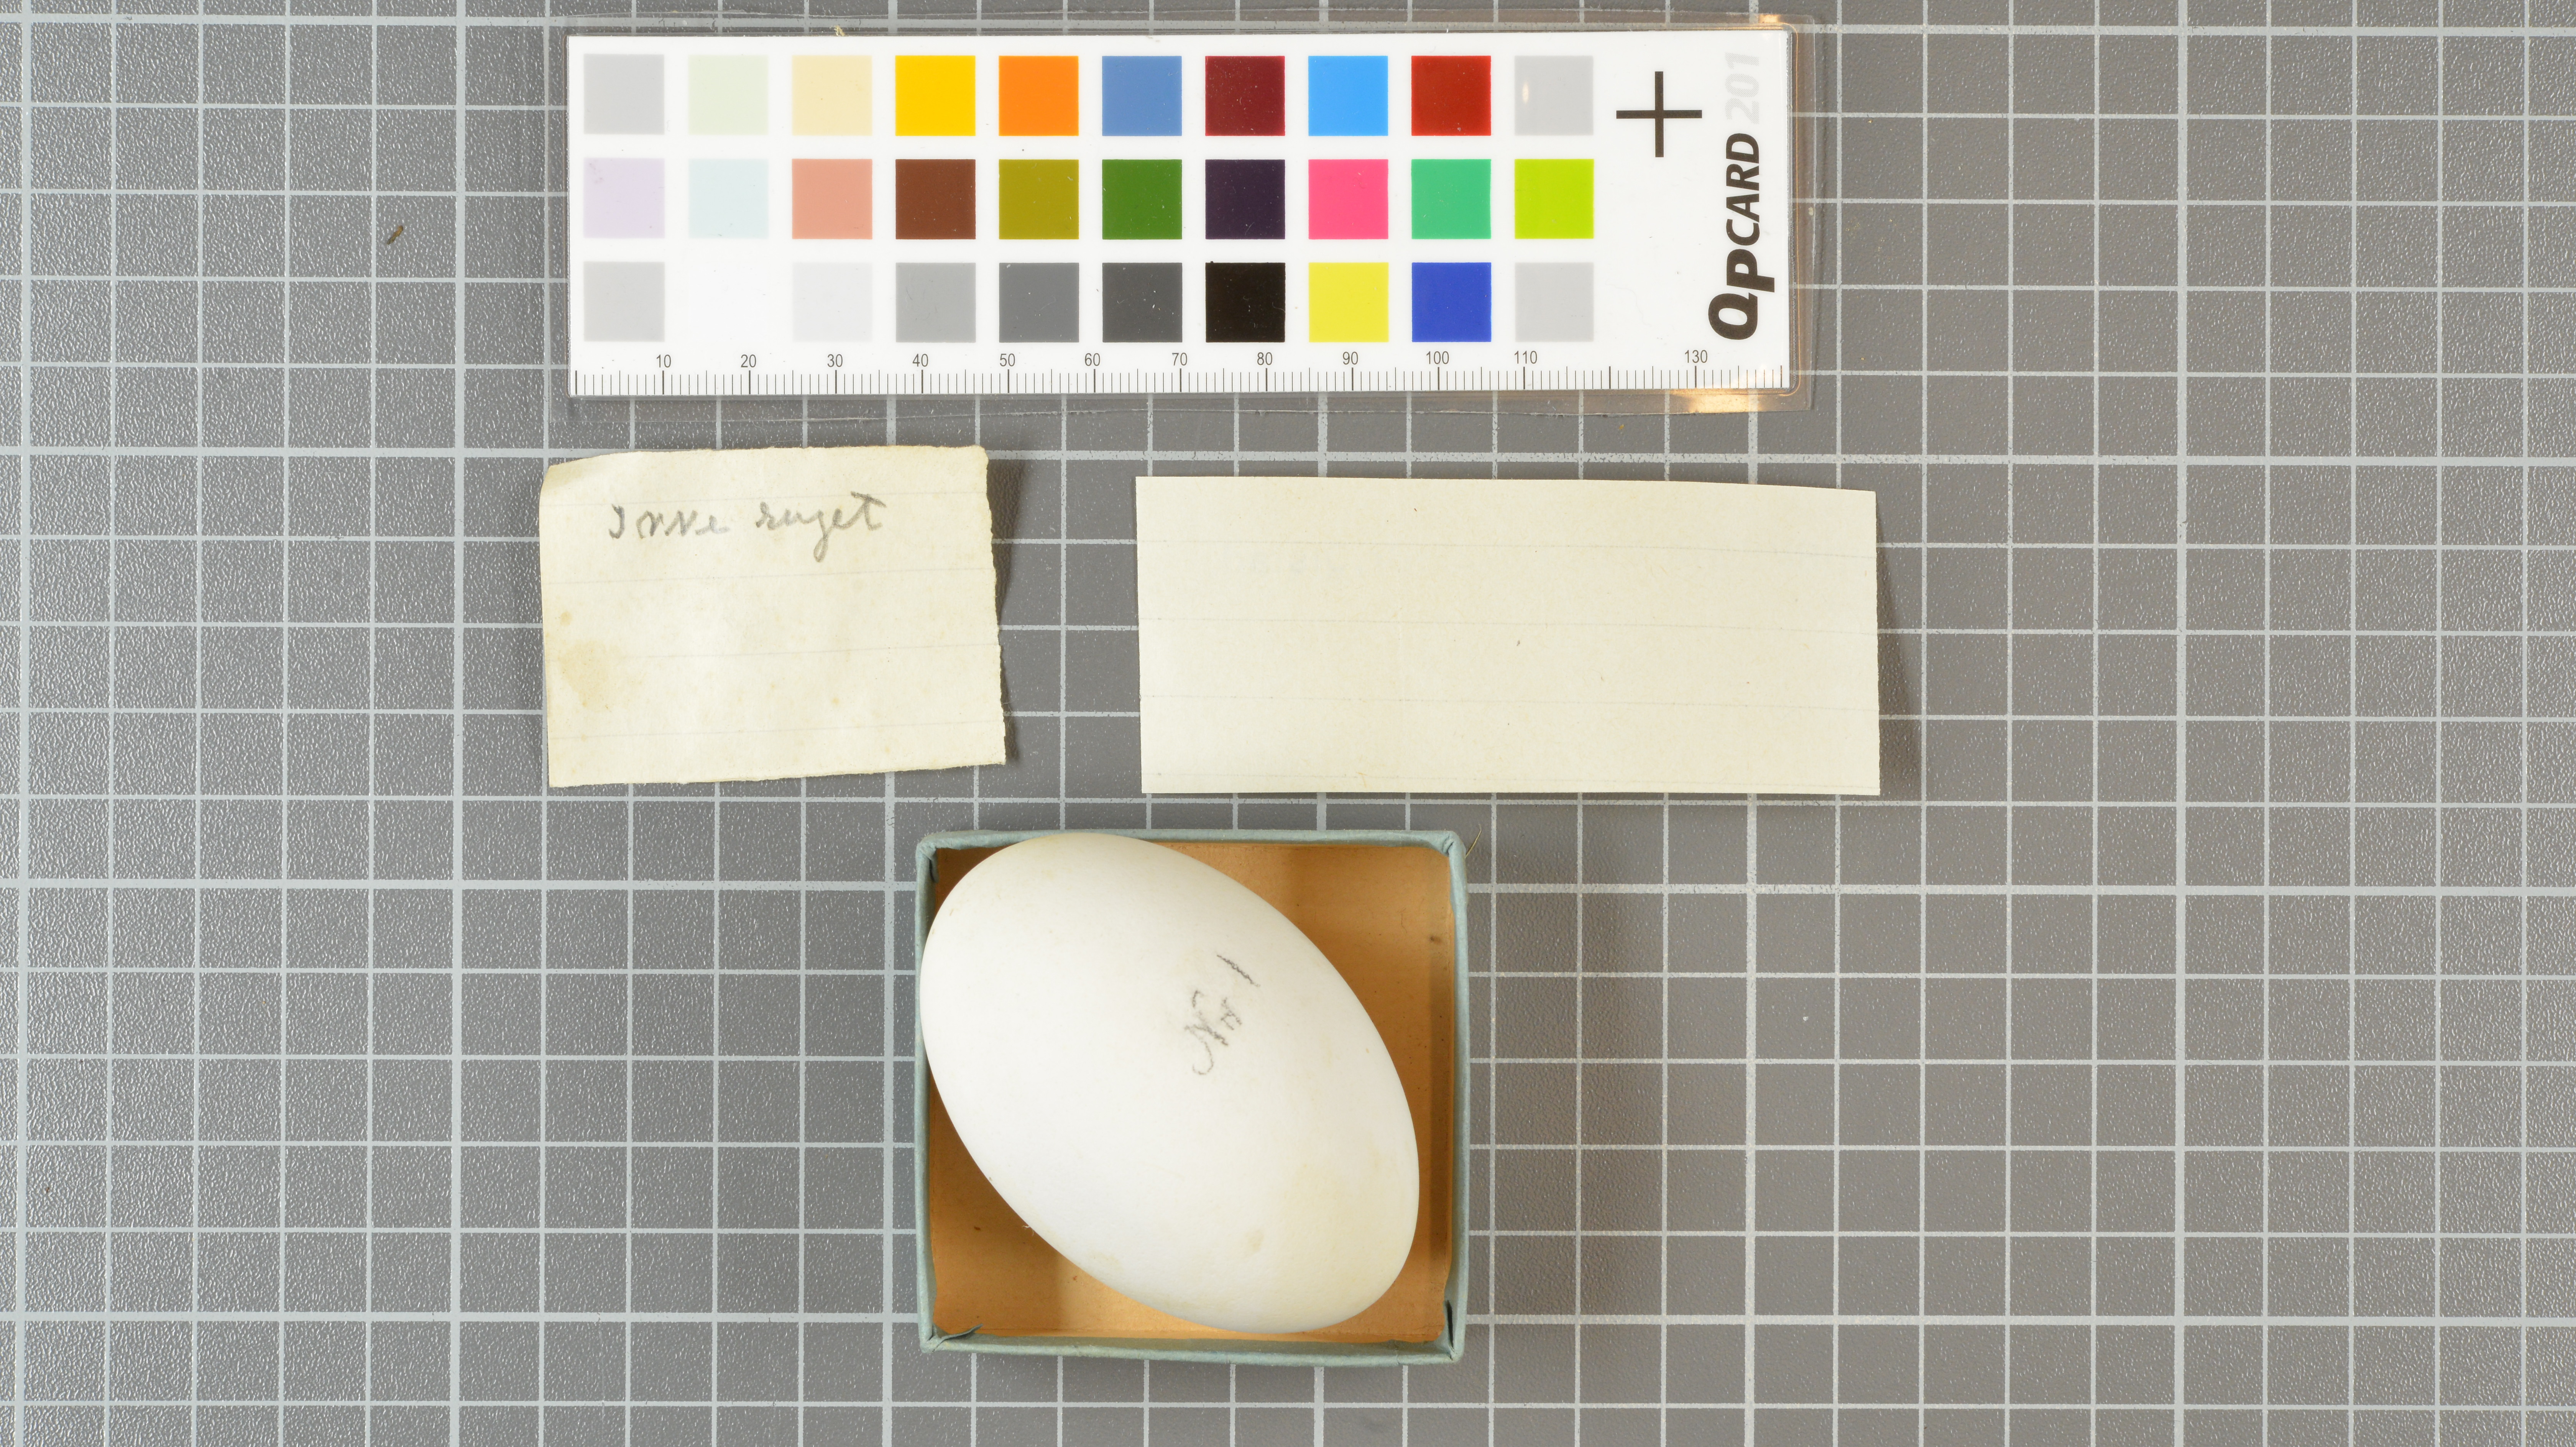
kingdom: Animalia
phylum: Chordata
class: Aves
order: Procellariiformes
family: Procellariidae
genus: Daption
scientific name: Daption capense
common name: Cape petrel
